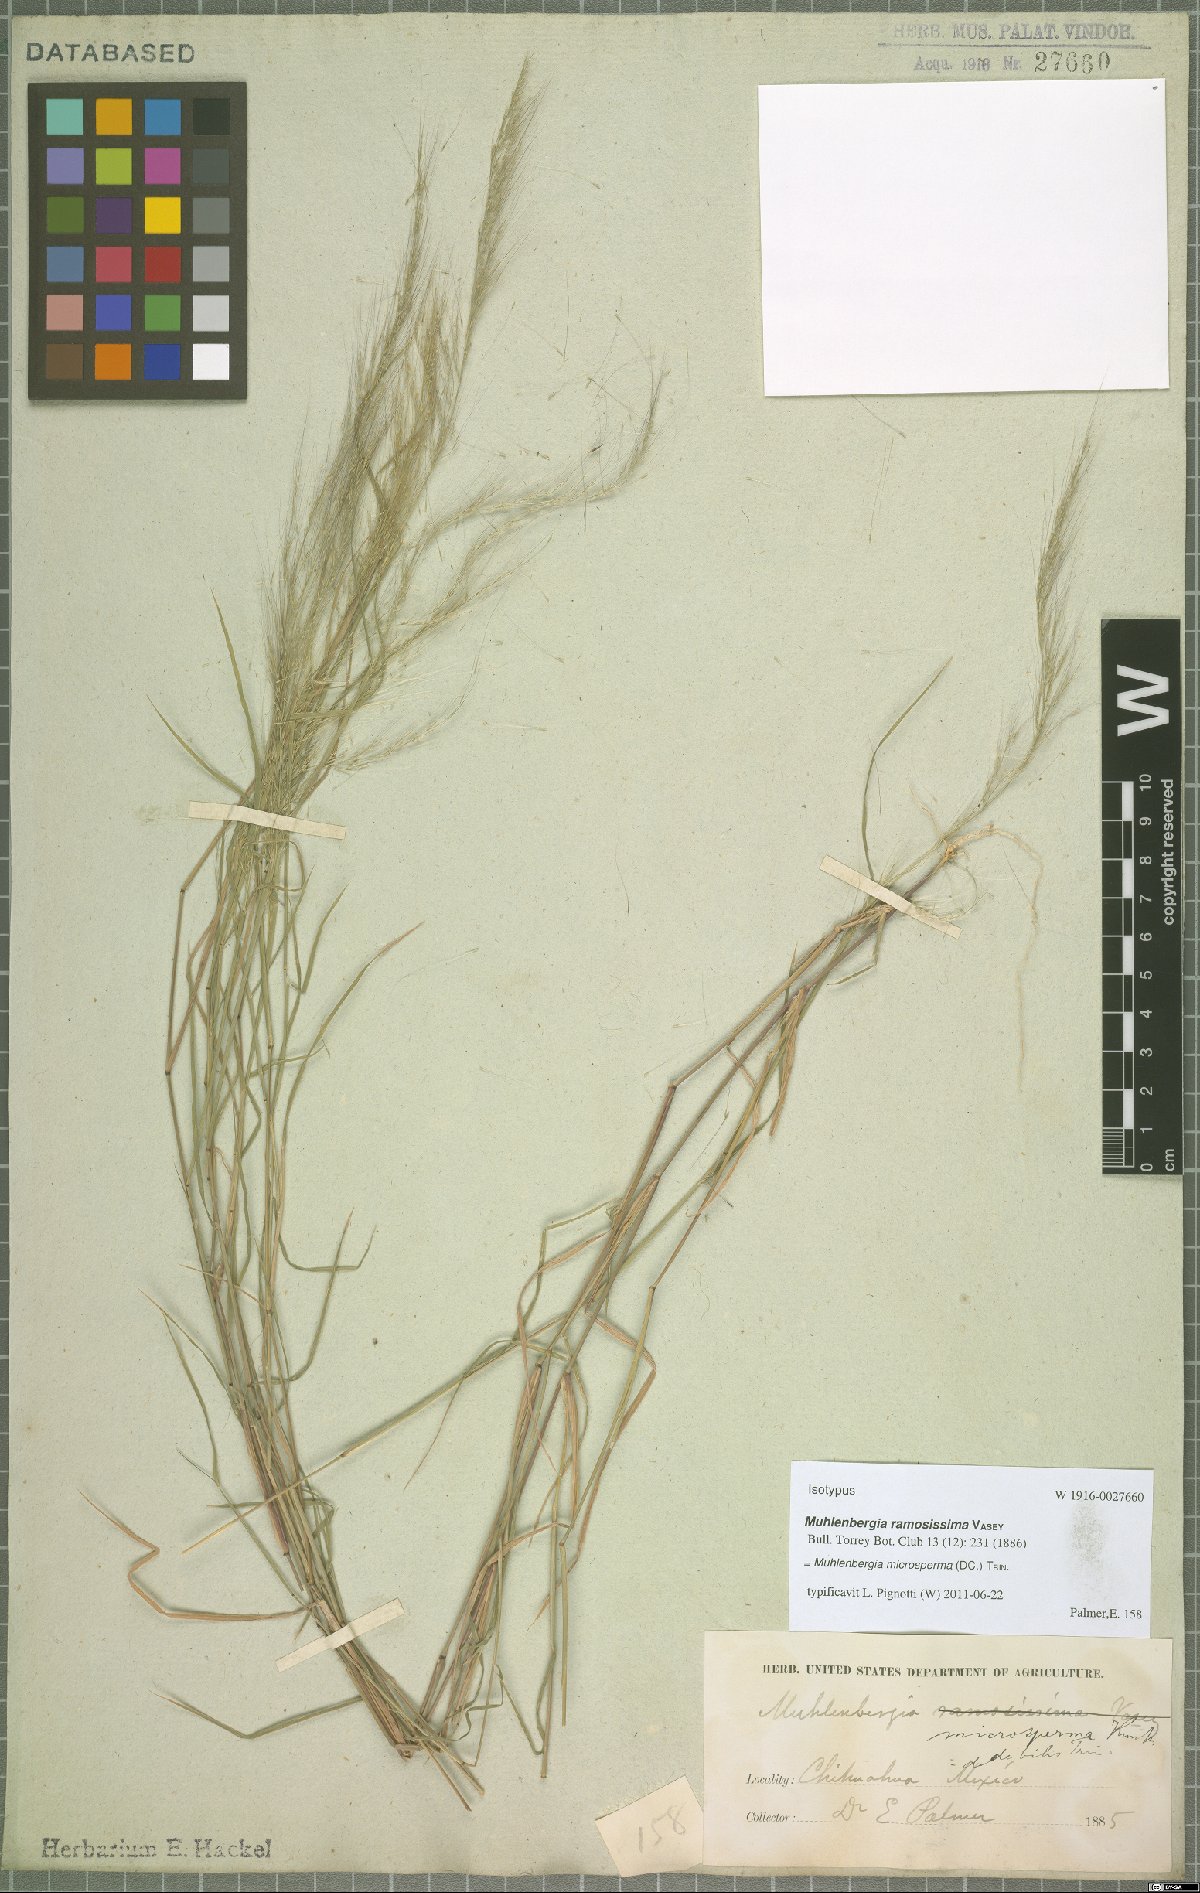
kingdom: Plantae
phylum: Tracheophyta
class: Liliopsida
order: Poales
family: Poaceae
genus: Muhlenbergia
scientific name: Muhlenbergia microsperma
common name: Littleseed muhly
